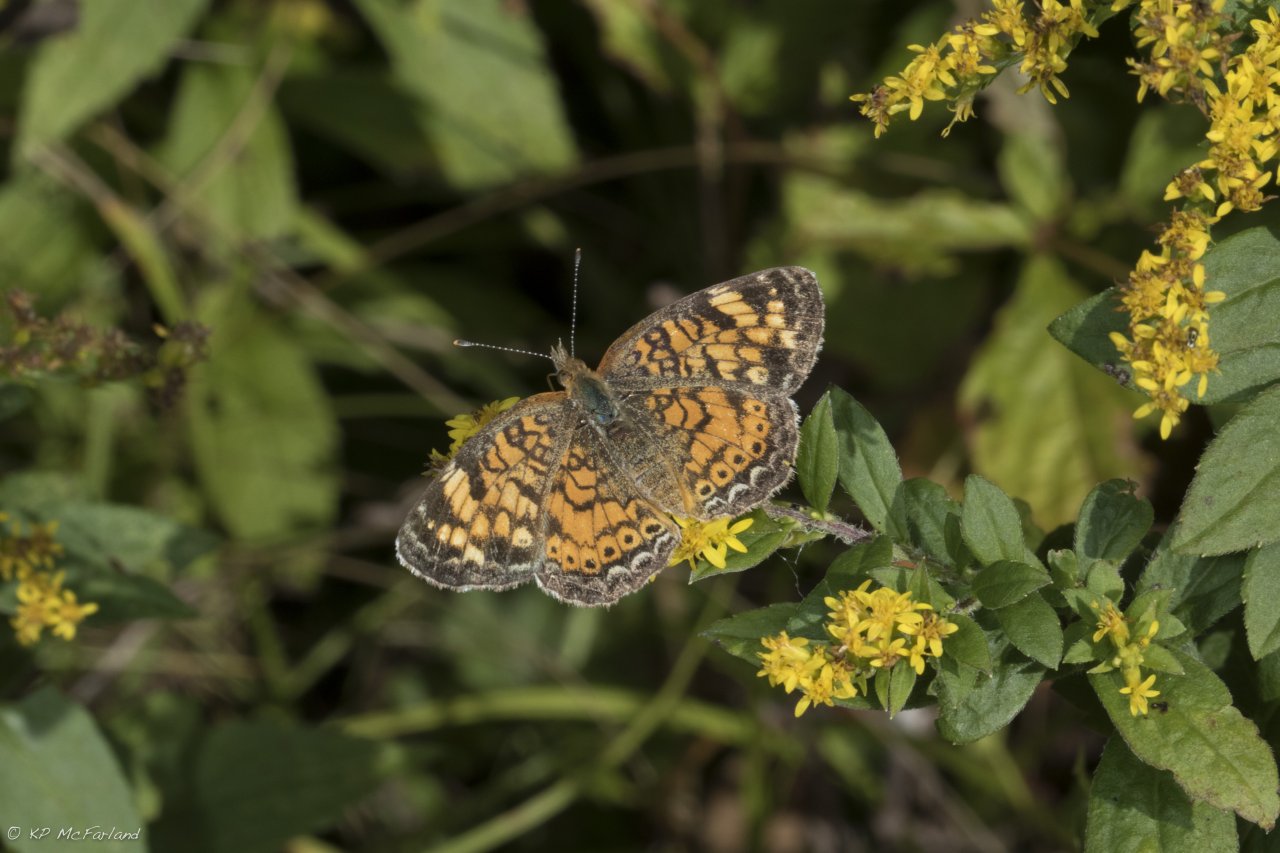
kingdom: Animalia
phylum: Arthropoda
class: Insecta
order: Lepidoptera
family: Nymphalidae
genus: Phyciodes
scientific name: Phyciodes
